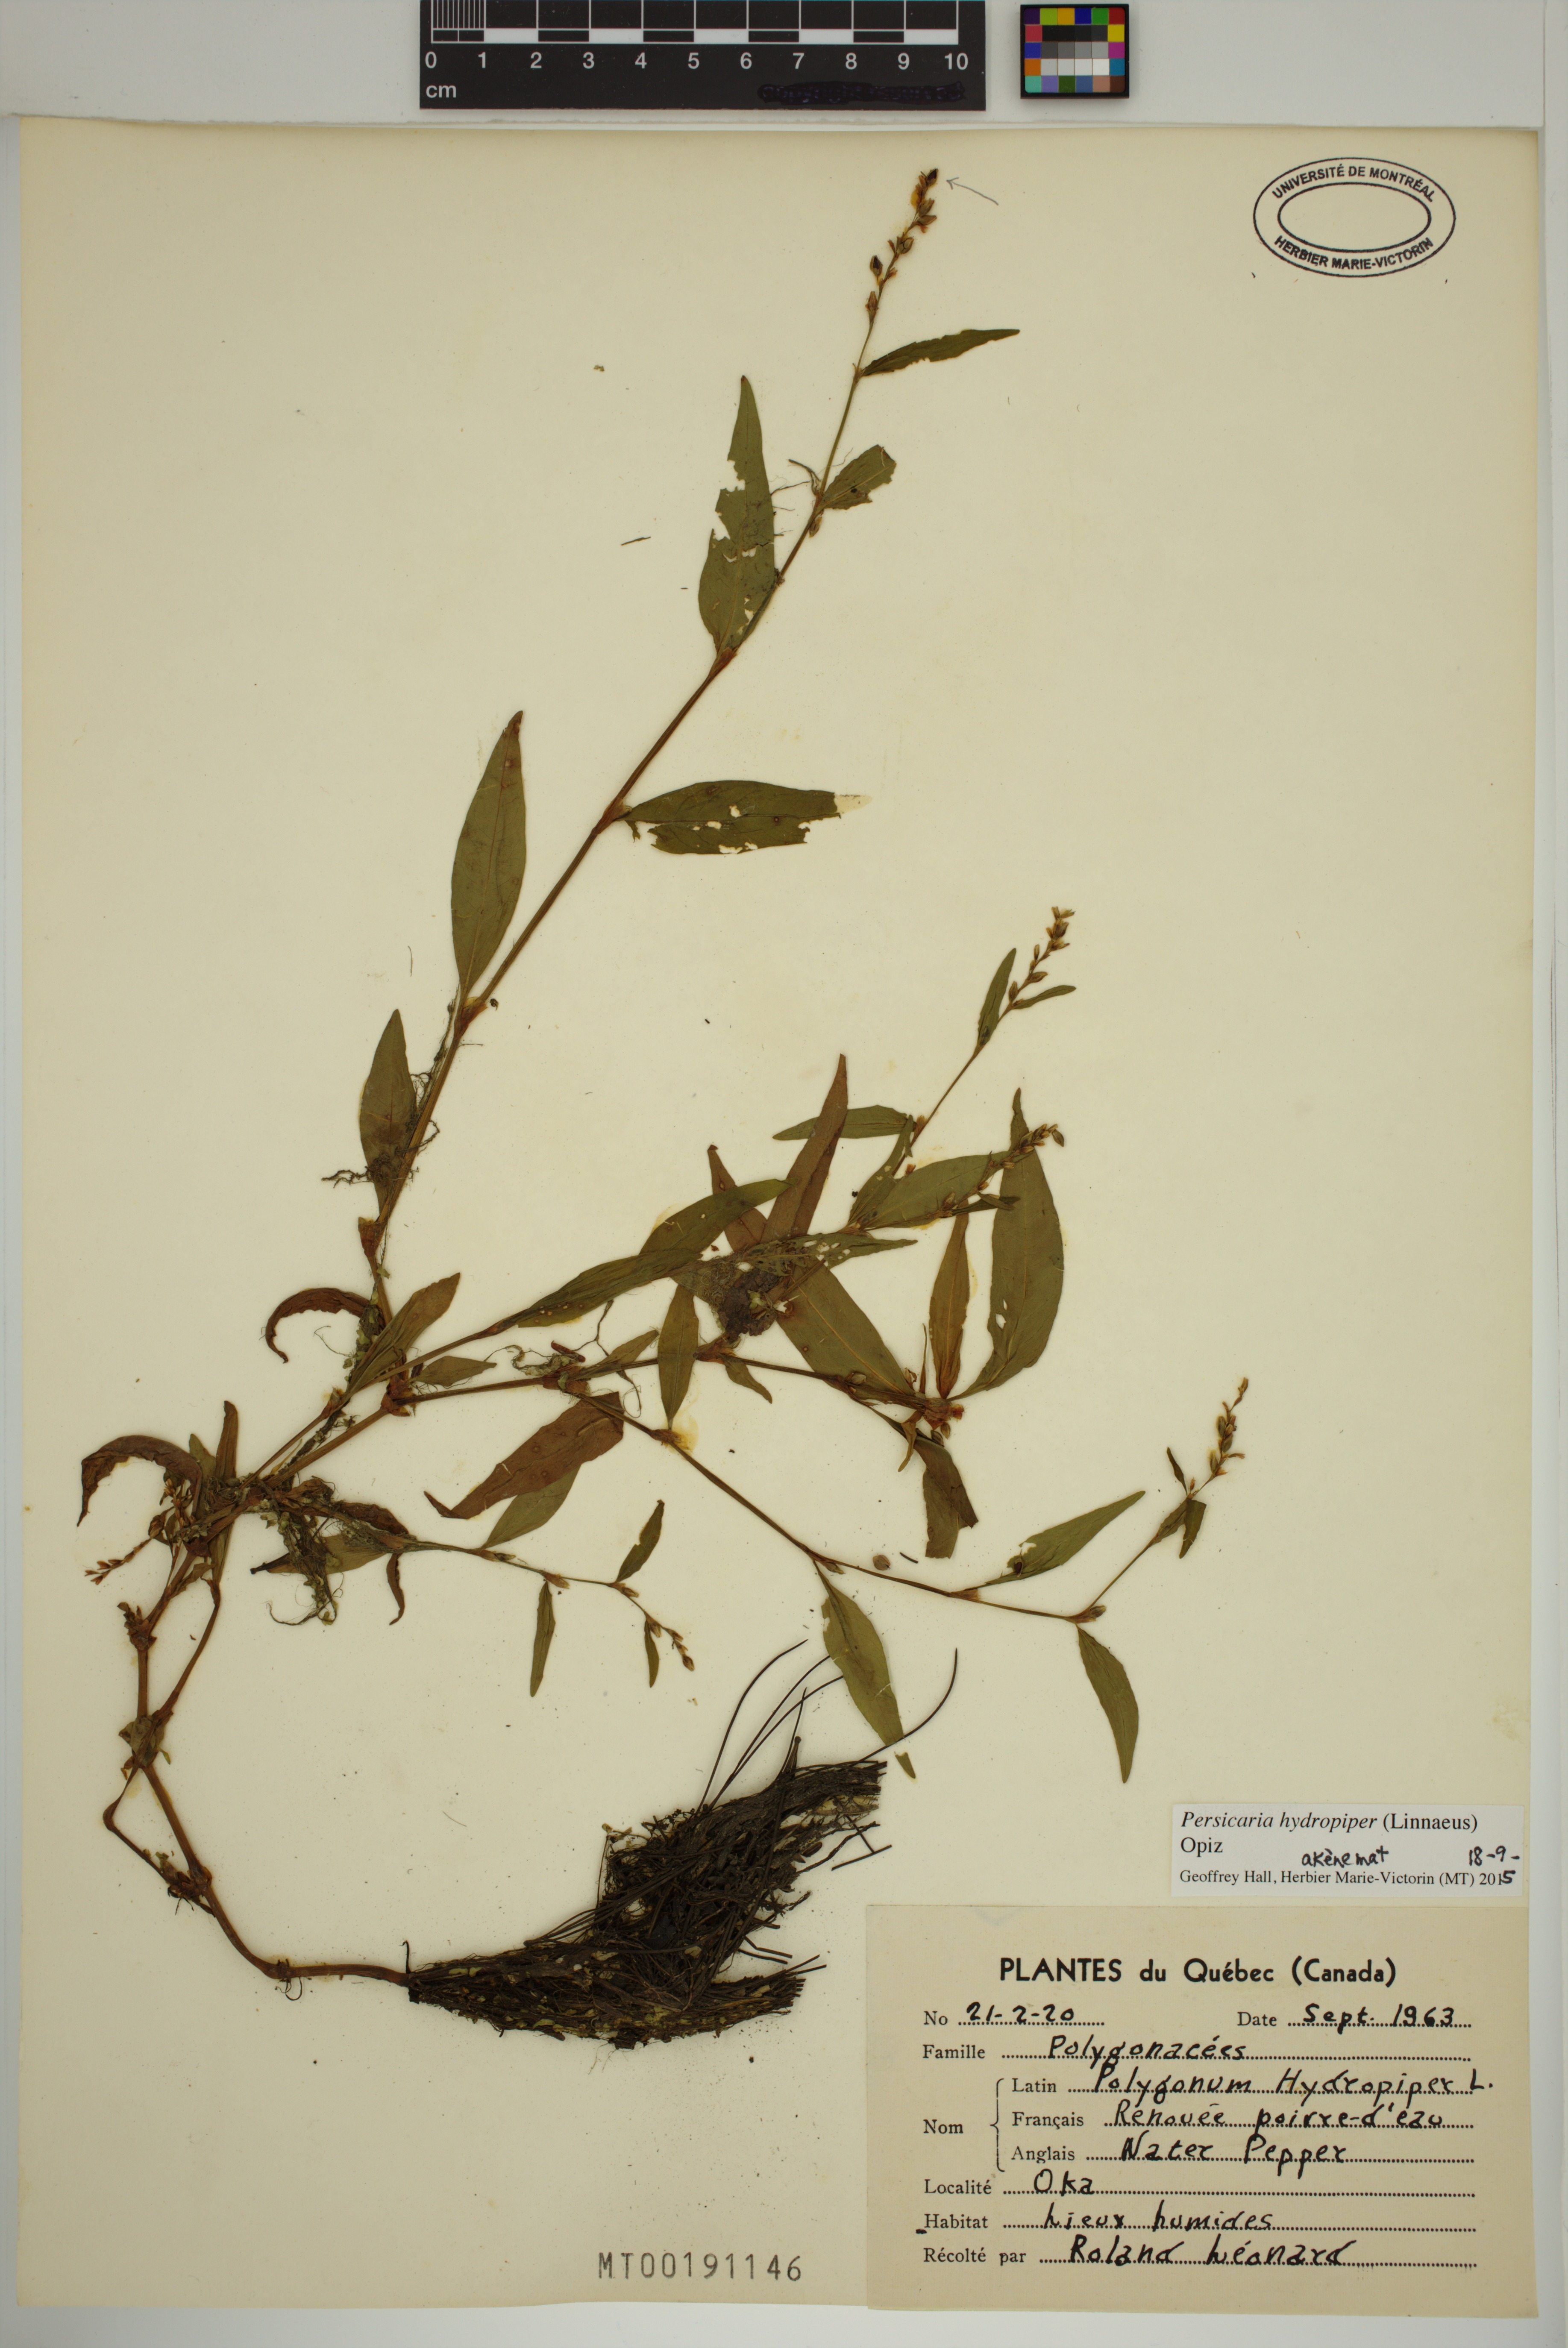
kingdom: Plantae
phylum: Tracheophyta
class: Magnoliopsida
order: Caryophyllales
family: Polygonaceae
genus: Persicaria
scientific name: Persicaria hydropiper
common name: Water-pepper
